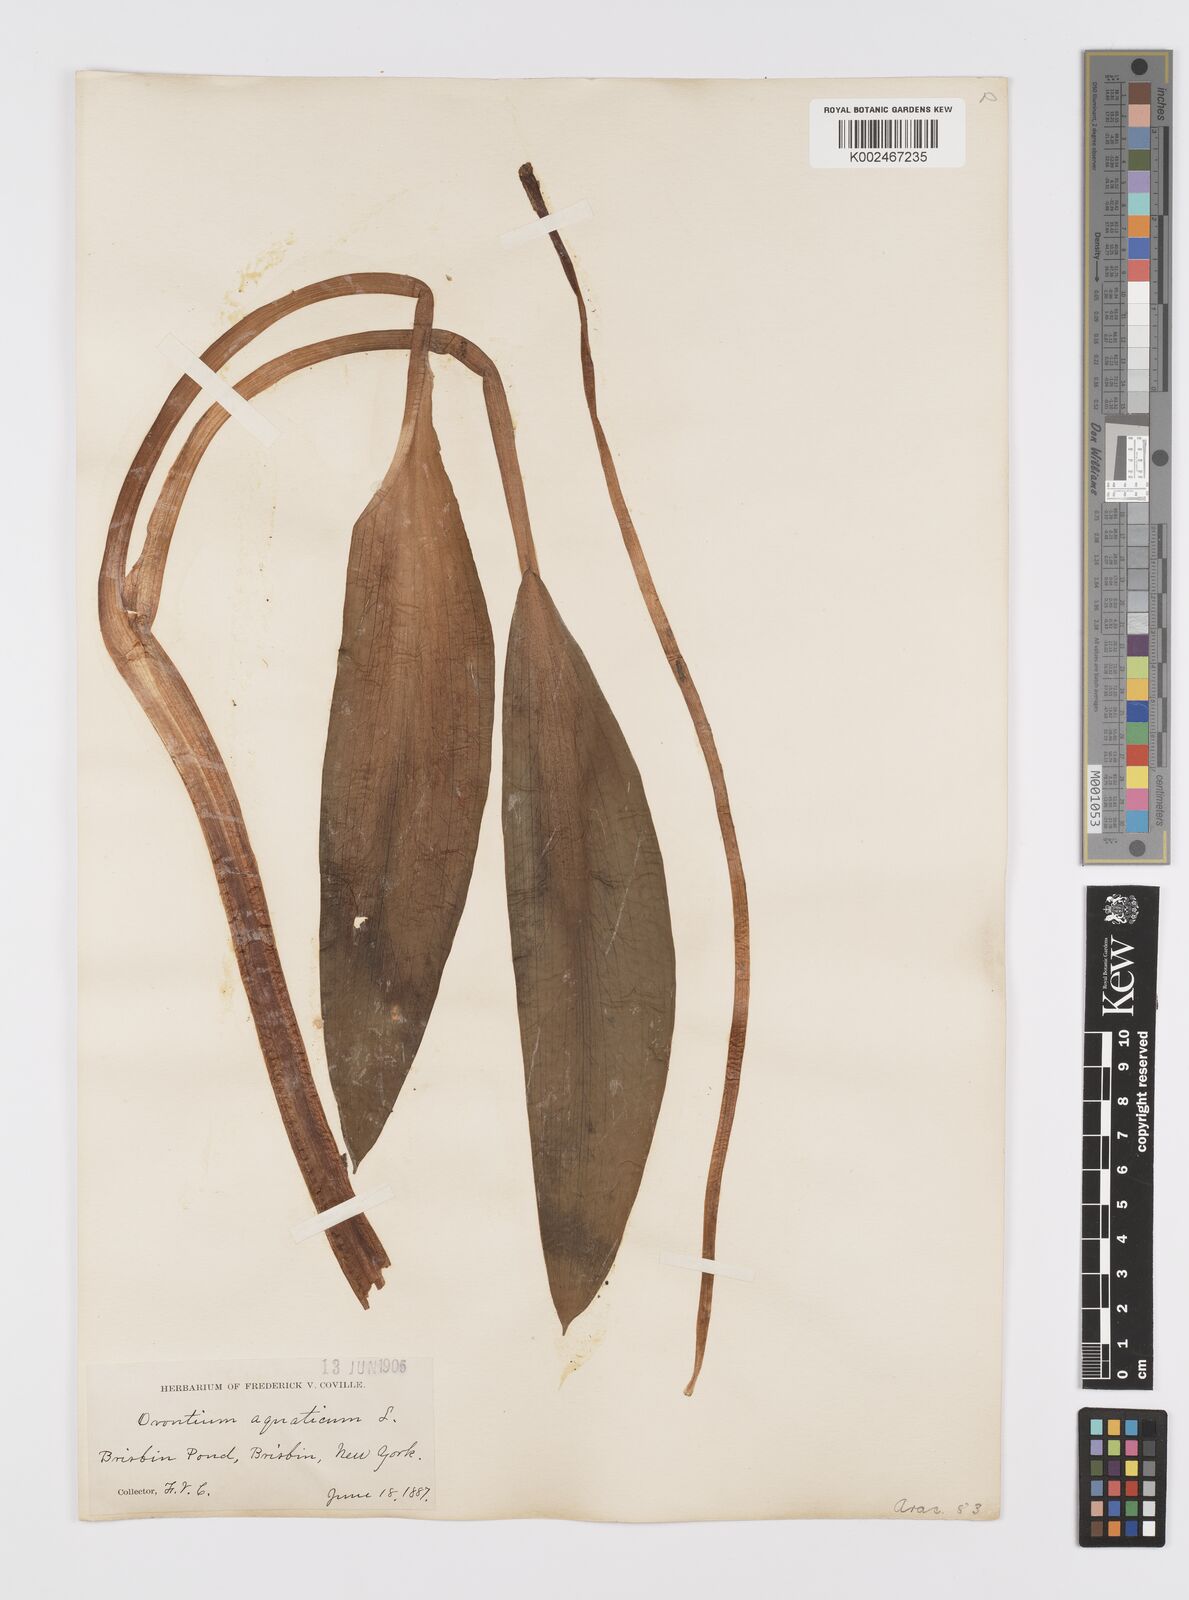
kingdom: Plantae
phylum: Tracheophyta
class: Liliopsida
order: Alismatales
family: Araceae
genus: Orontium
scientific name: Orontium aquaticum
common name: Golden-club
